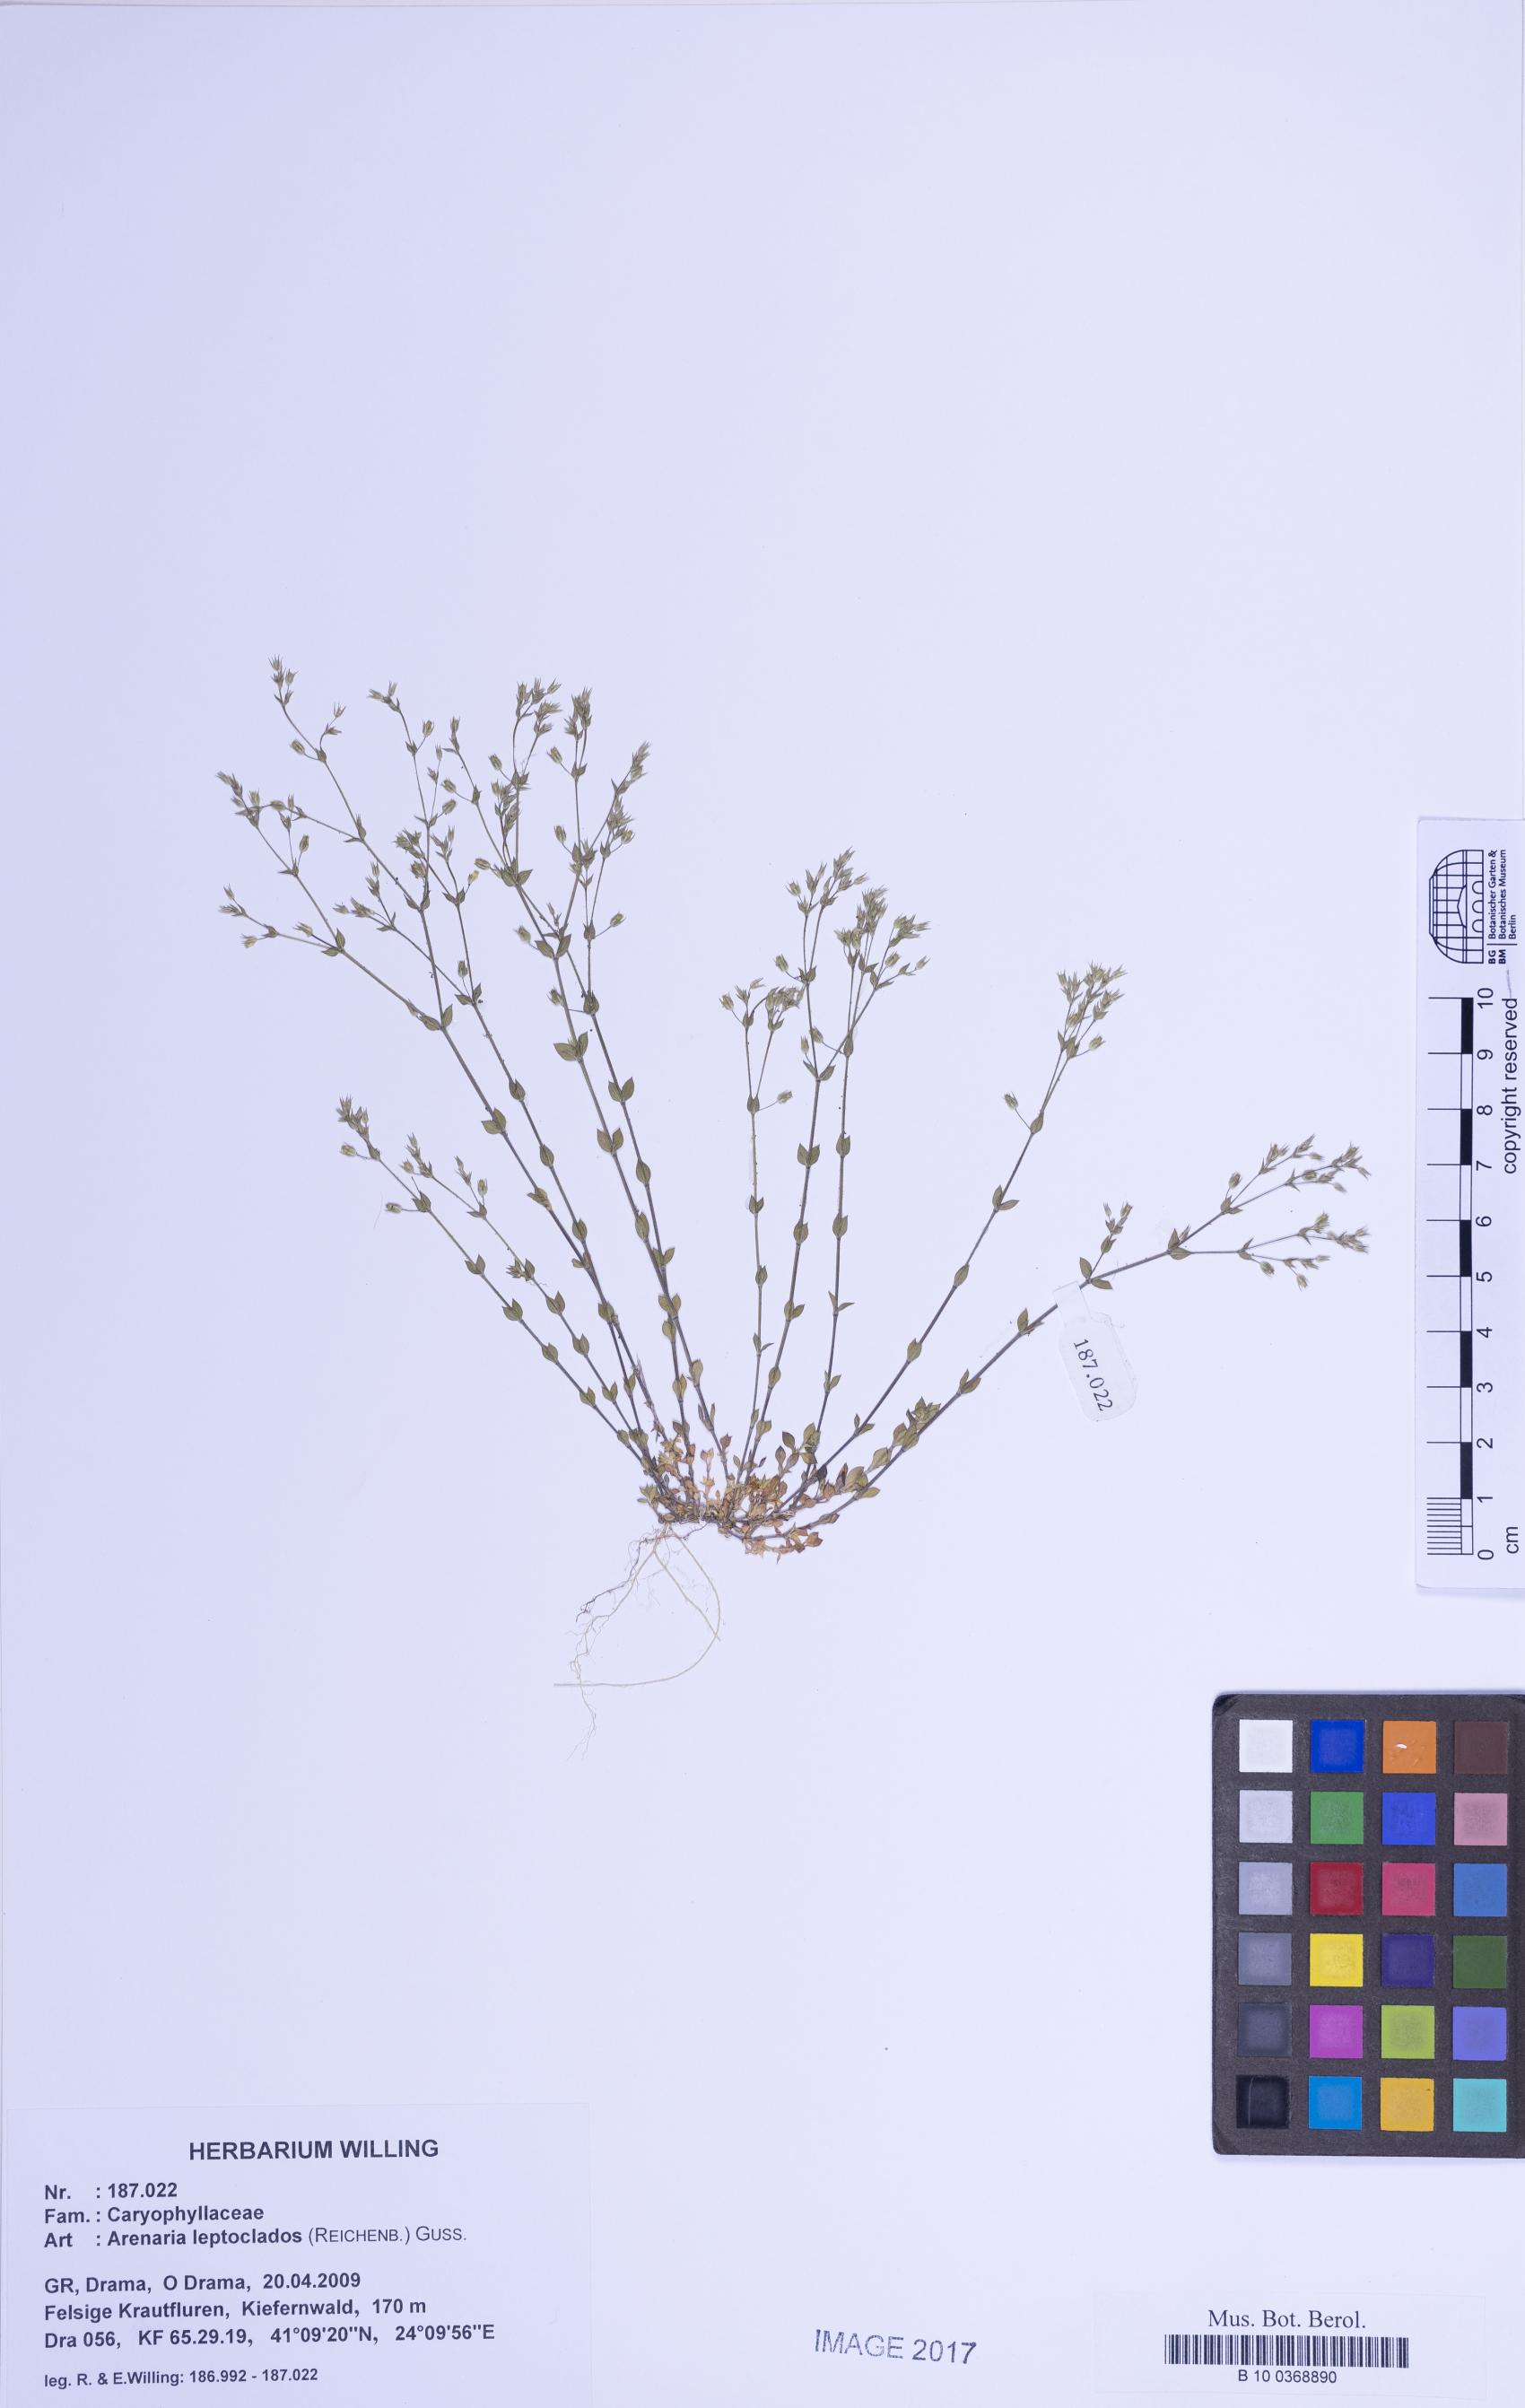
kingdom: Plantae
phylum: Tracheophyta
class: Magnoliopsida
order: Caryophyllales
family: Caryophyllaceae
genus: Arenaria
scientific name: Arenaria leptoclados
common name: Thyme-leaved sandwort
